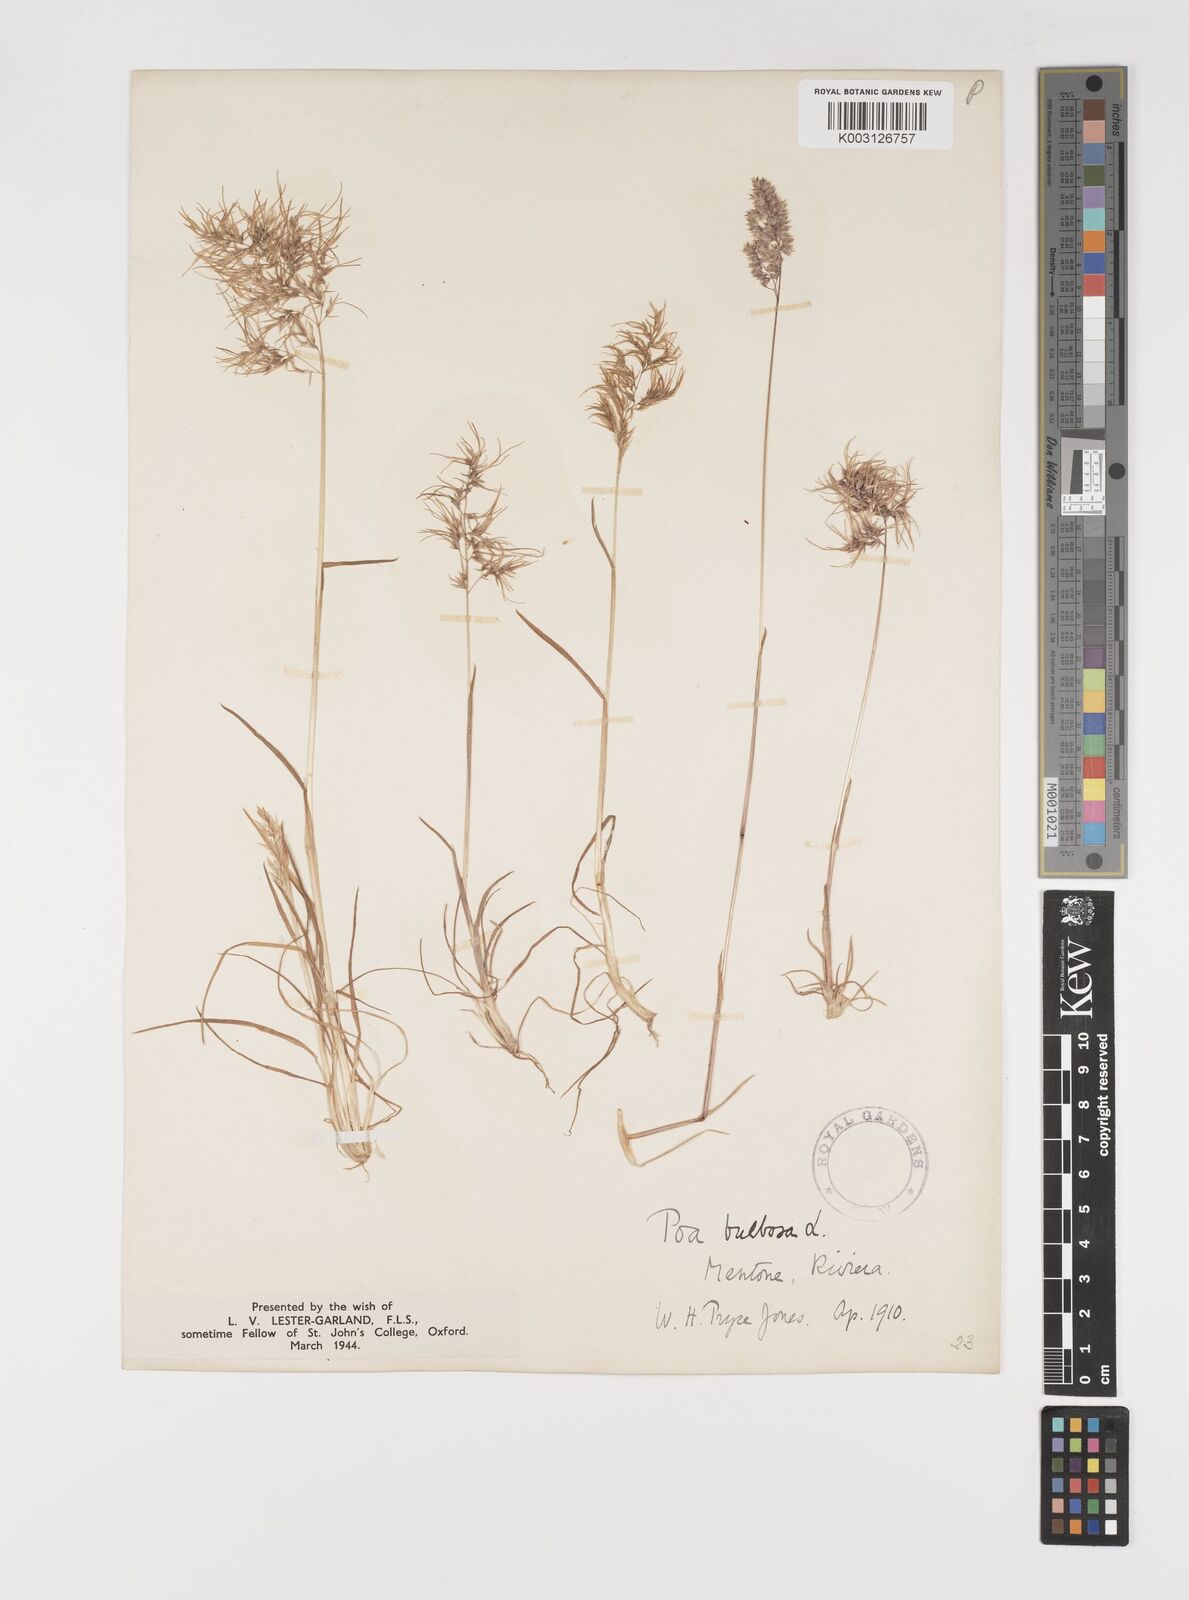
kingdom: Plantae
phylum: Tracheophyta
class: Liliopsida
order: Poales
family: Poaceae
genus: Poa
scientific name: Poa bulbosa
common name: Bulbous bluegrass
